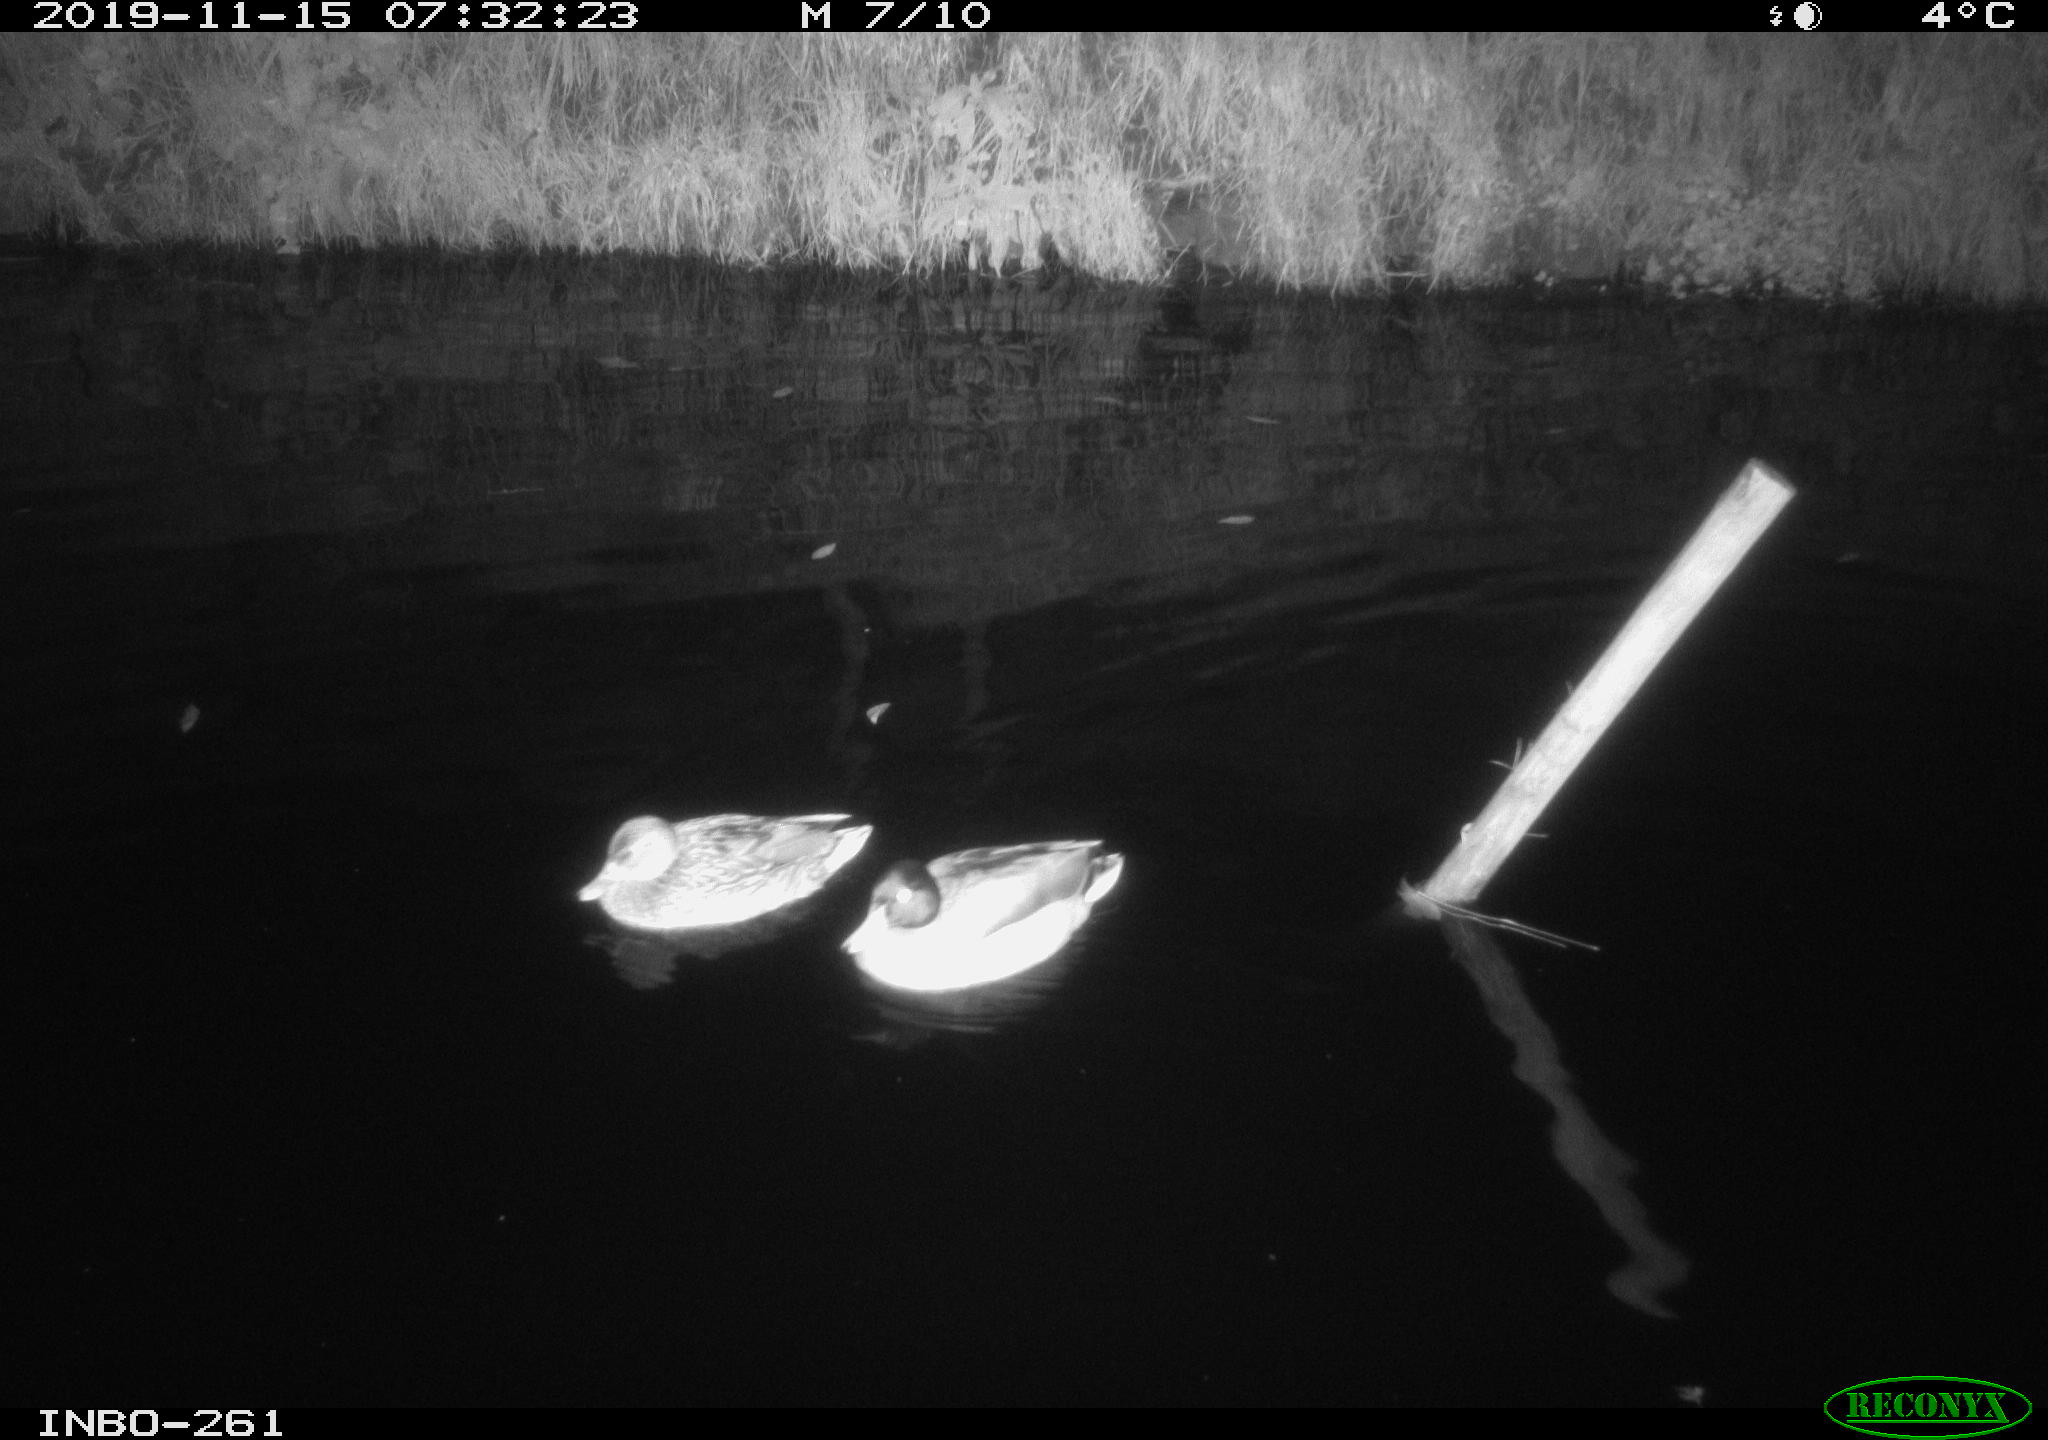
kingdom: Animalia
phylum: Chordata
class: Aves
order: Anseriformes
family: Anatidae
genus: Anas
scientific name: Anas platyrhynchos
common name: Mallard
